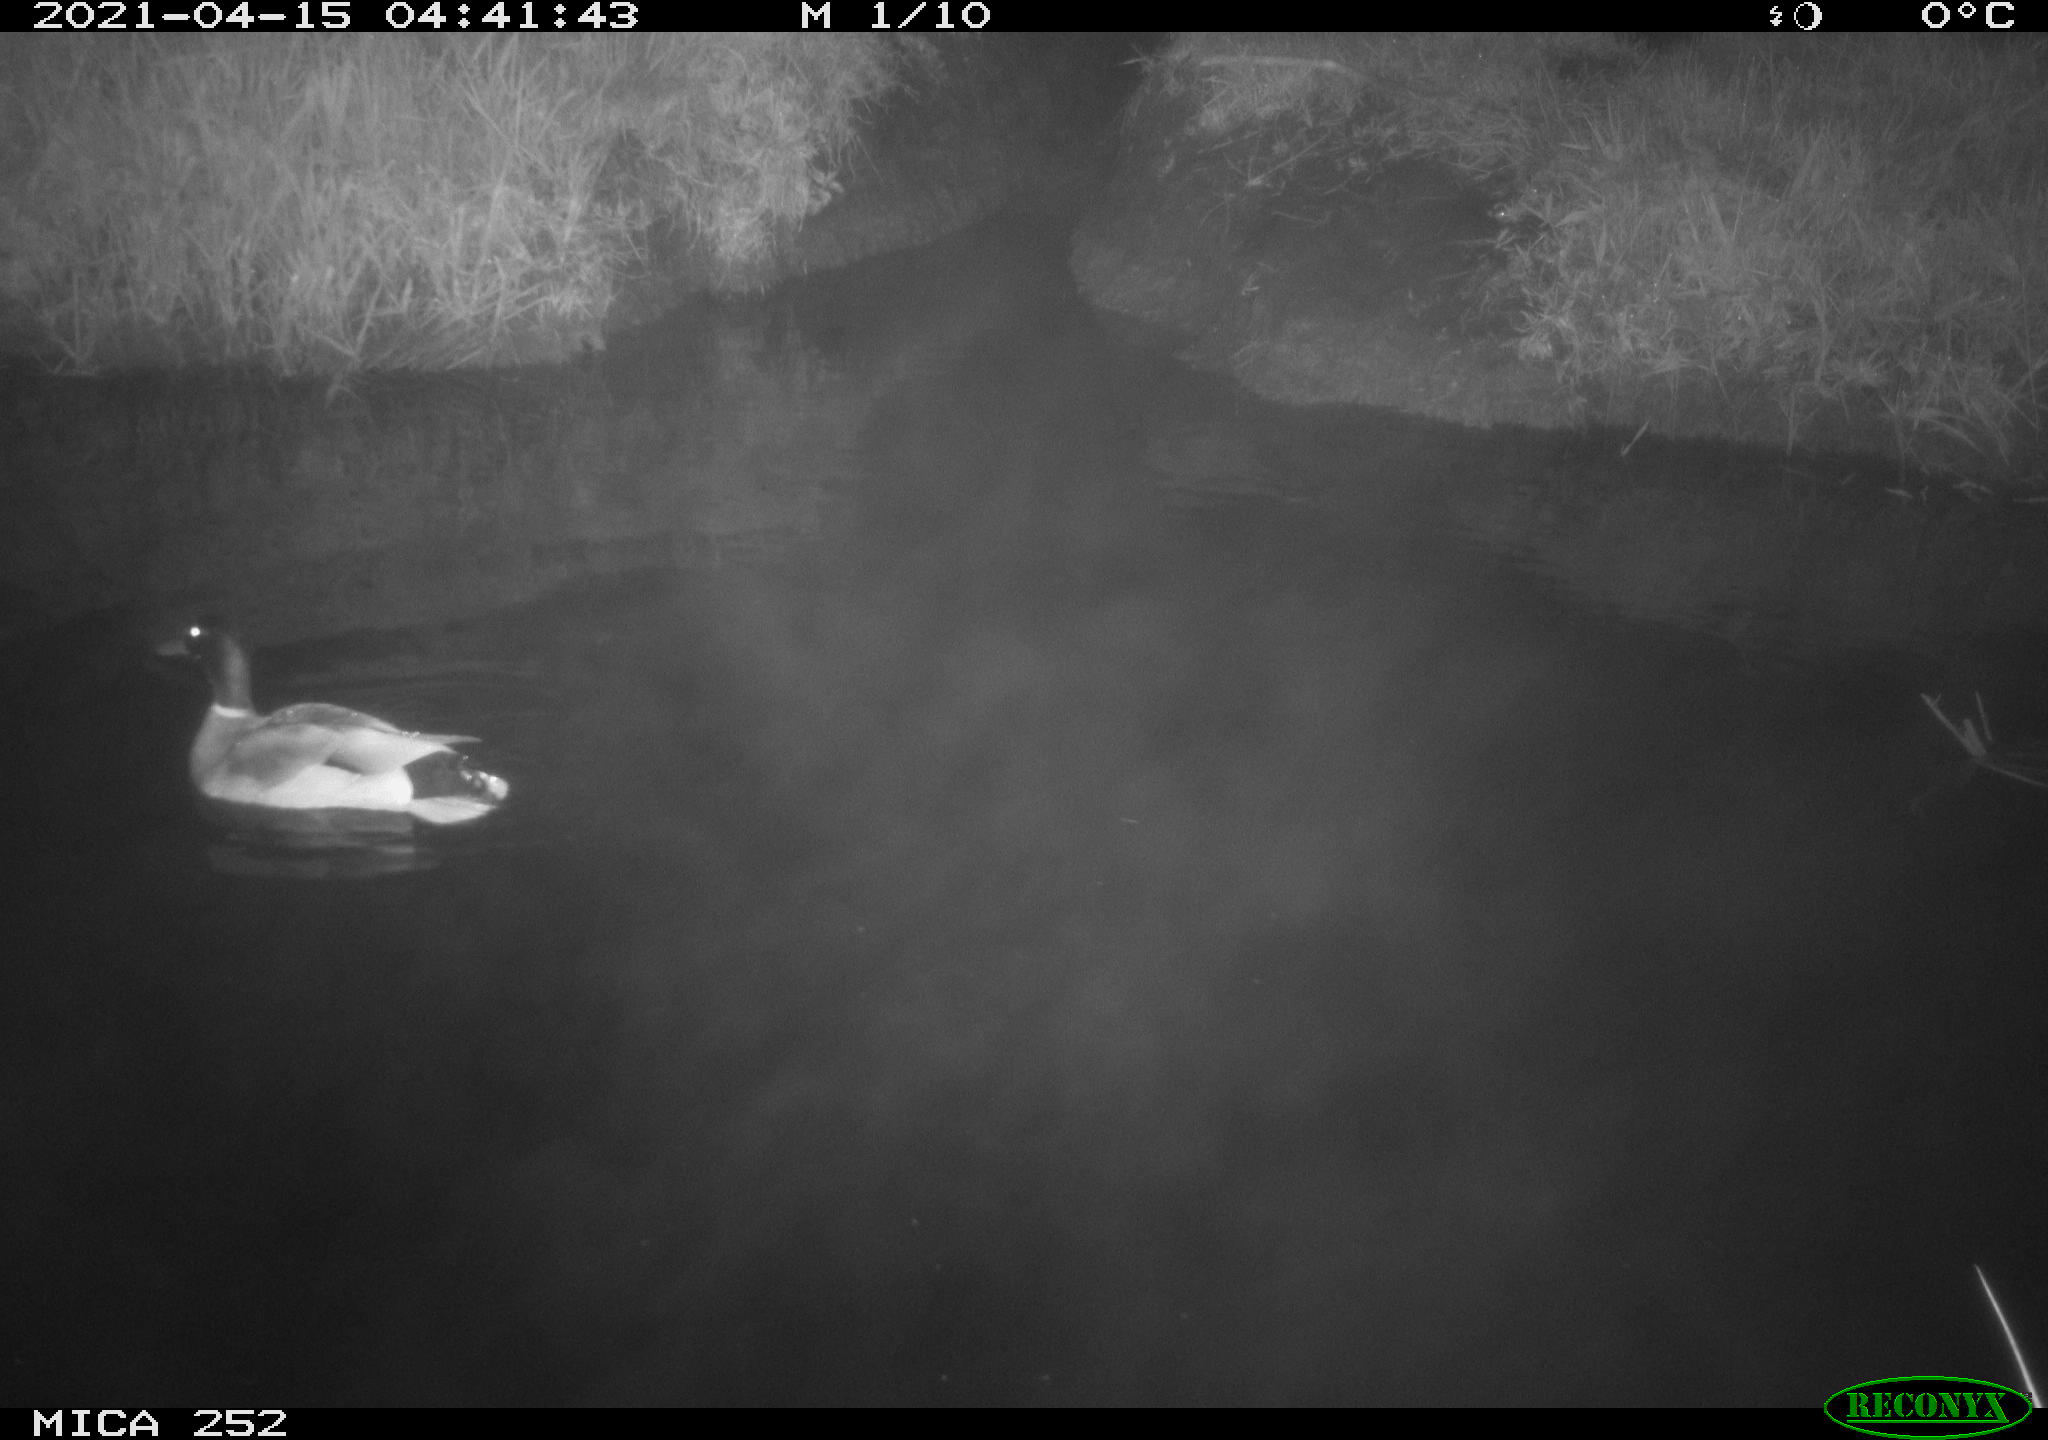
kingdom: Animalia
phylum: Chordata
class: Aves
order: Anseriformes
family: Anatidae
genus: Anas
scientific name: Anas platyrhynchos
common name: Mallard
